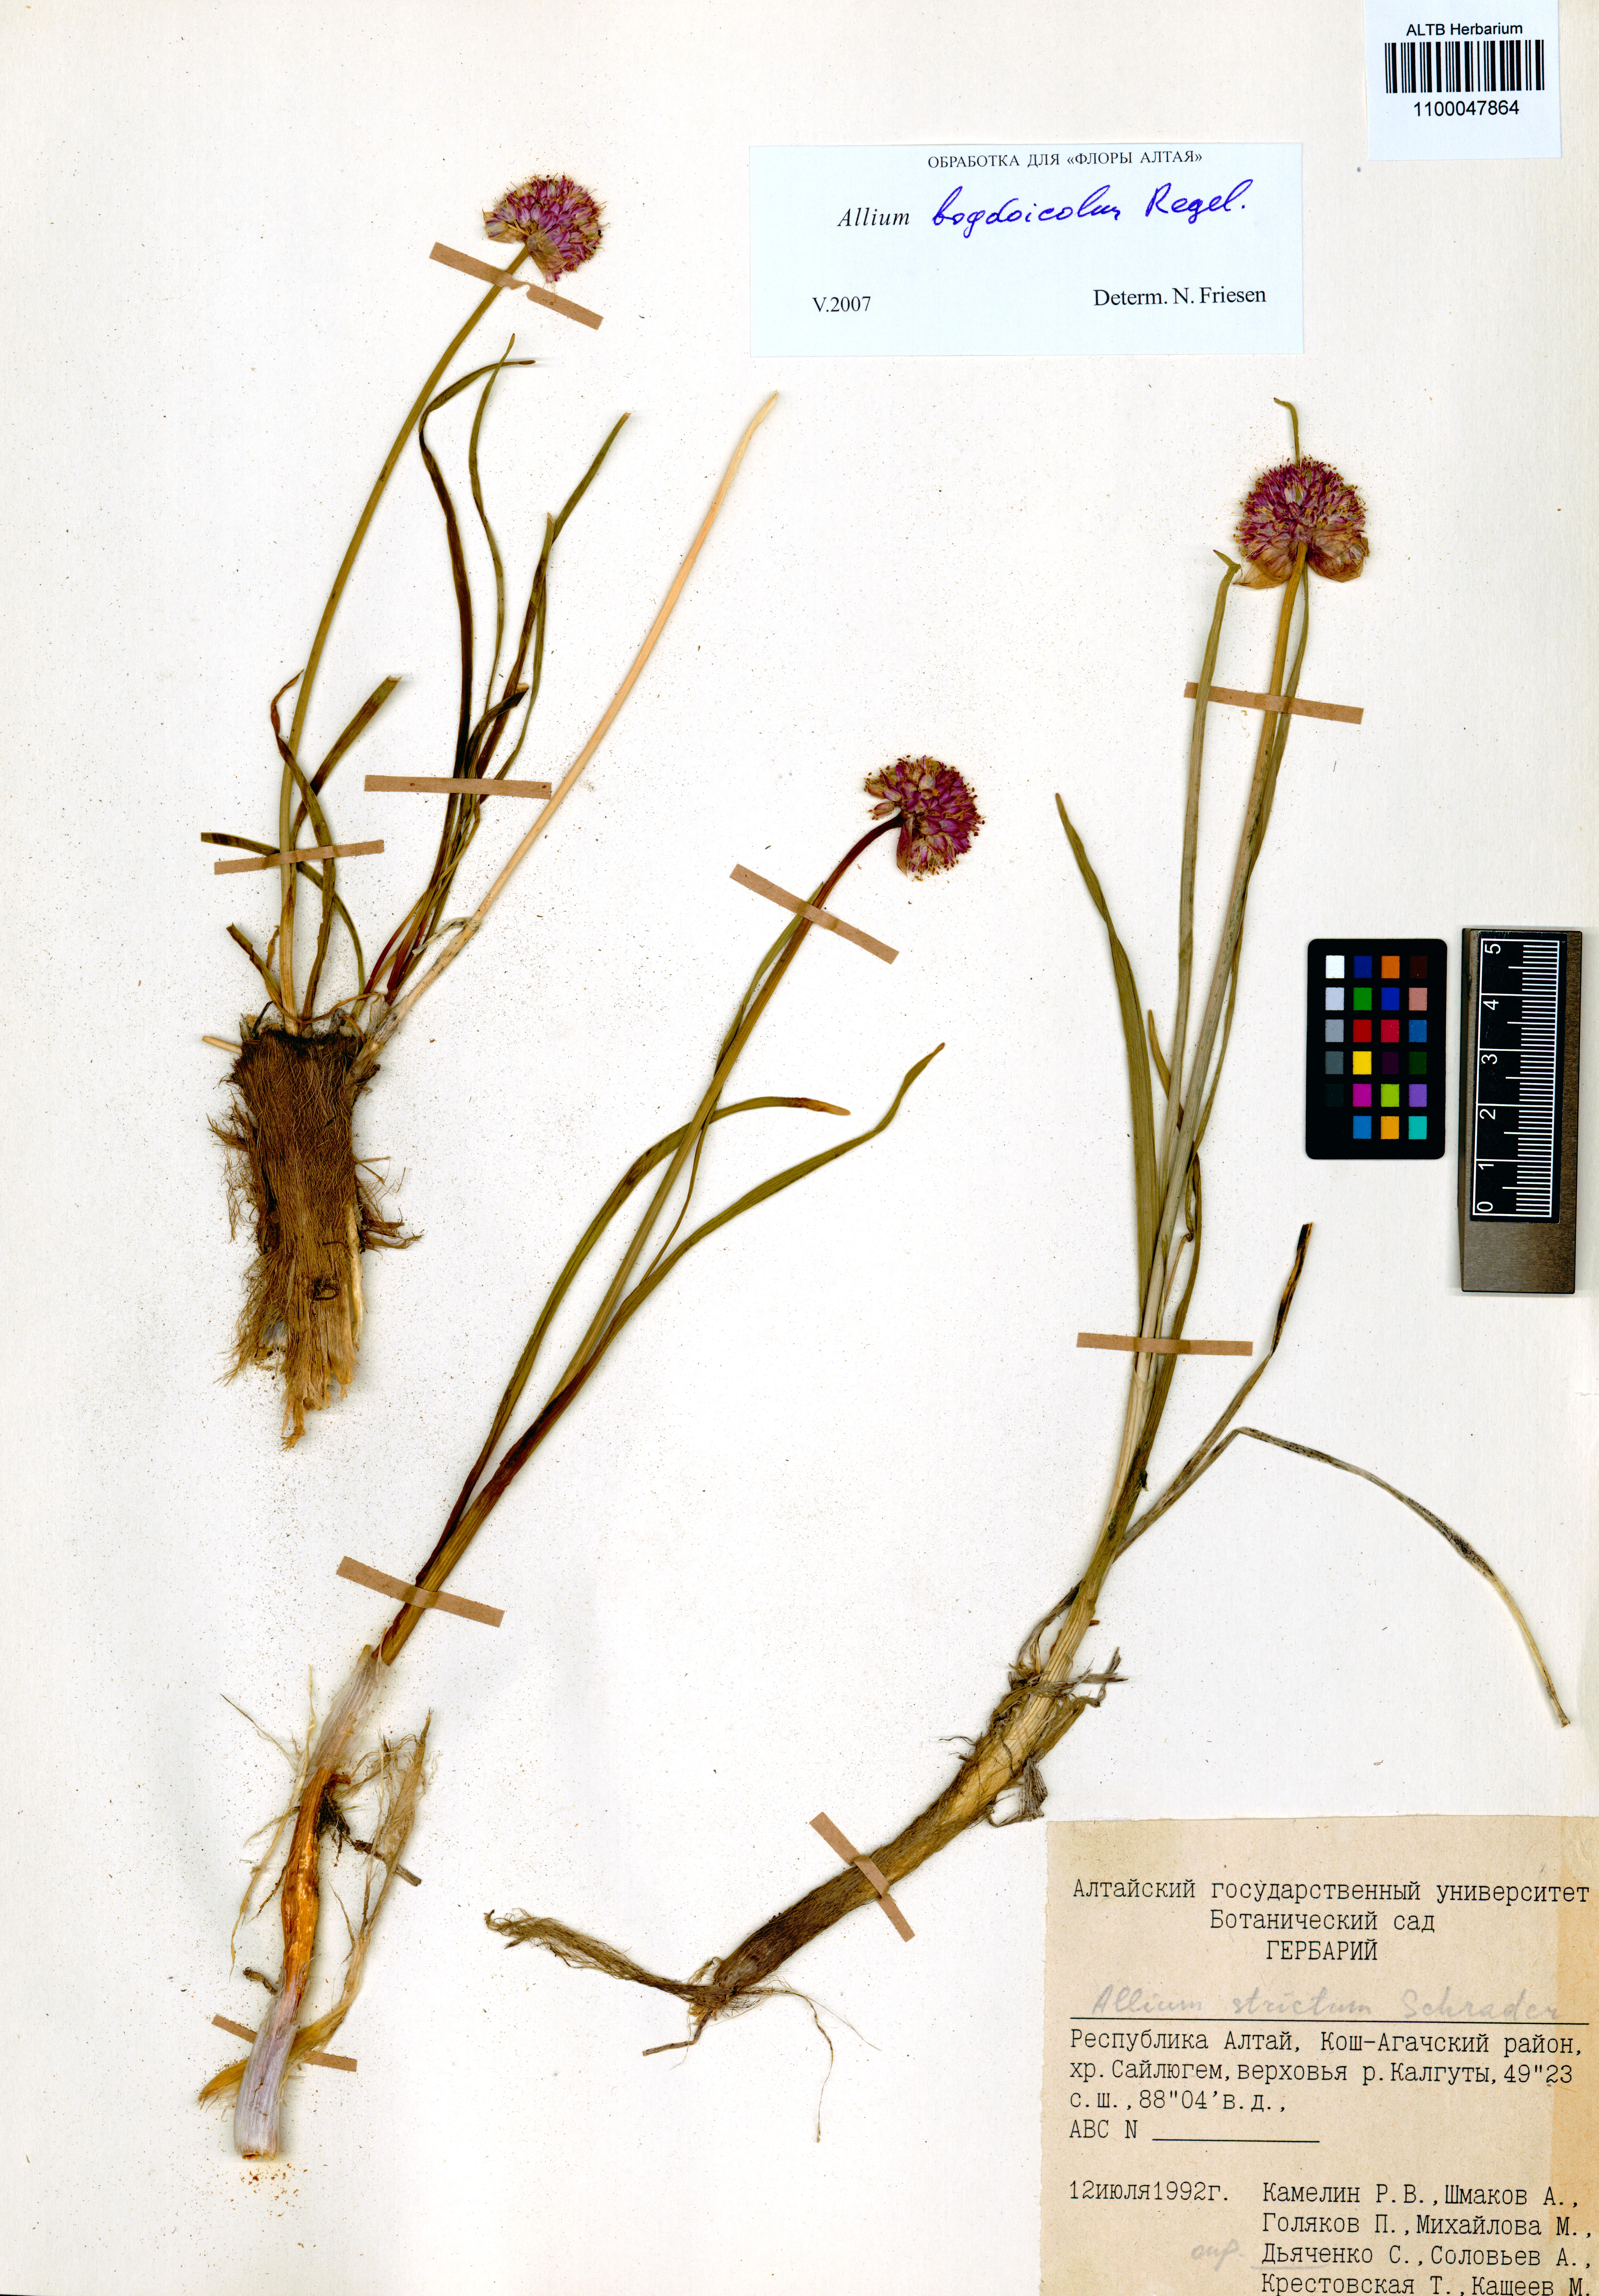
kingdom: Plantae
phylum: Tracheophyta
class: Liliopsida
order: Asparagales
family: Amaryllidaceae
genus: Allium
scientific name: Allium schrenkii
